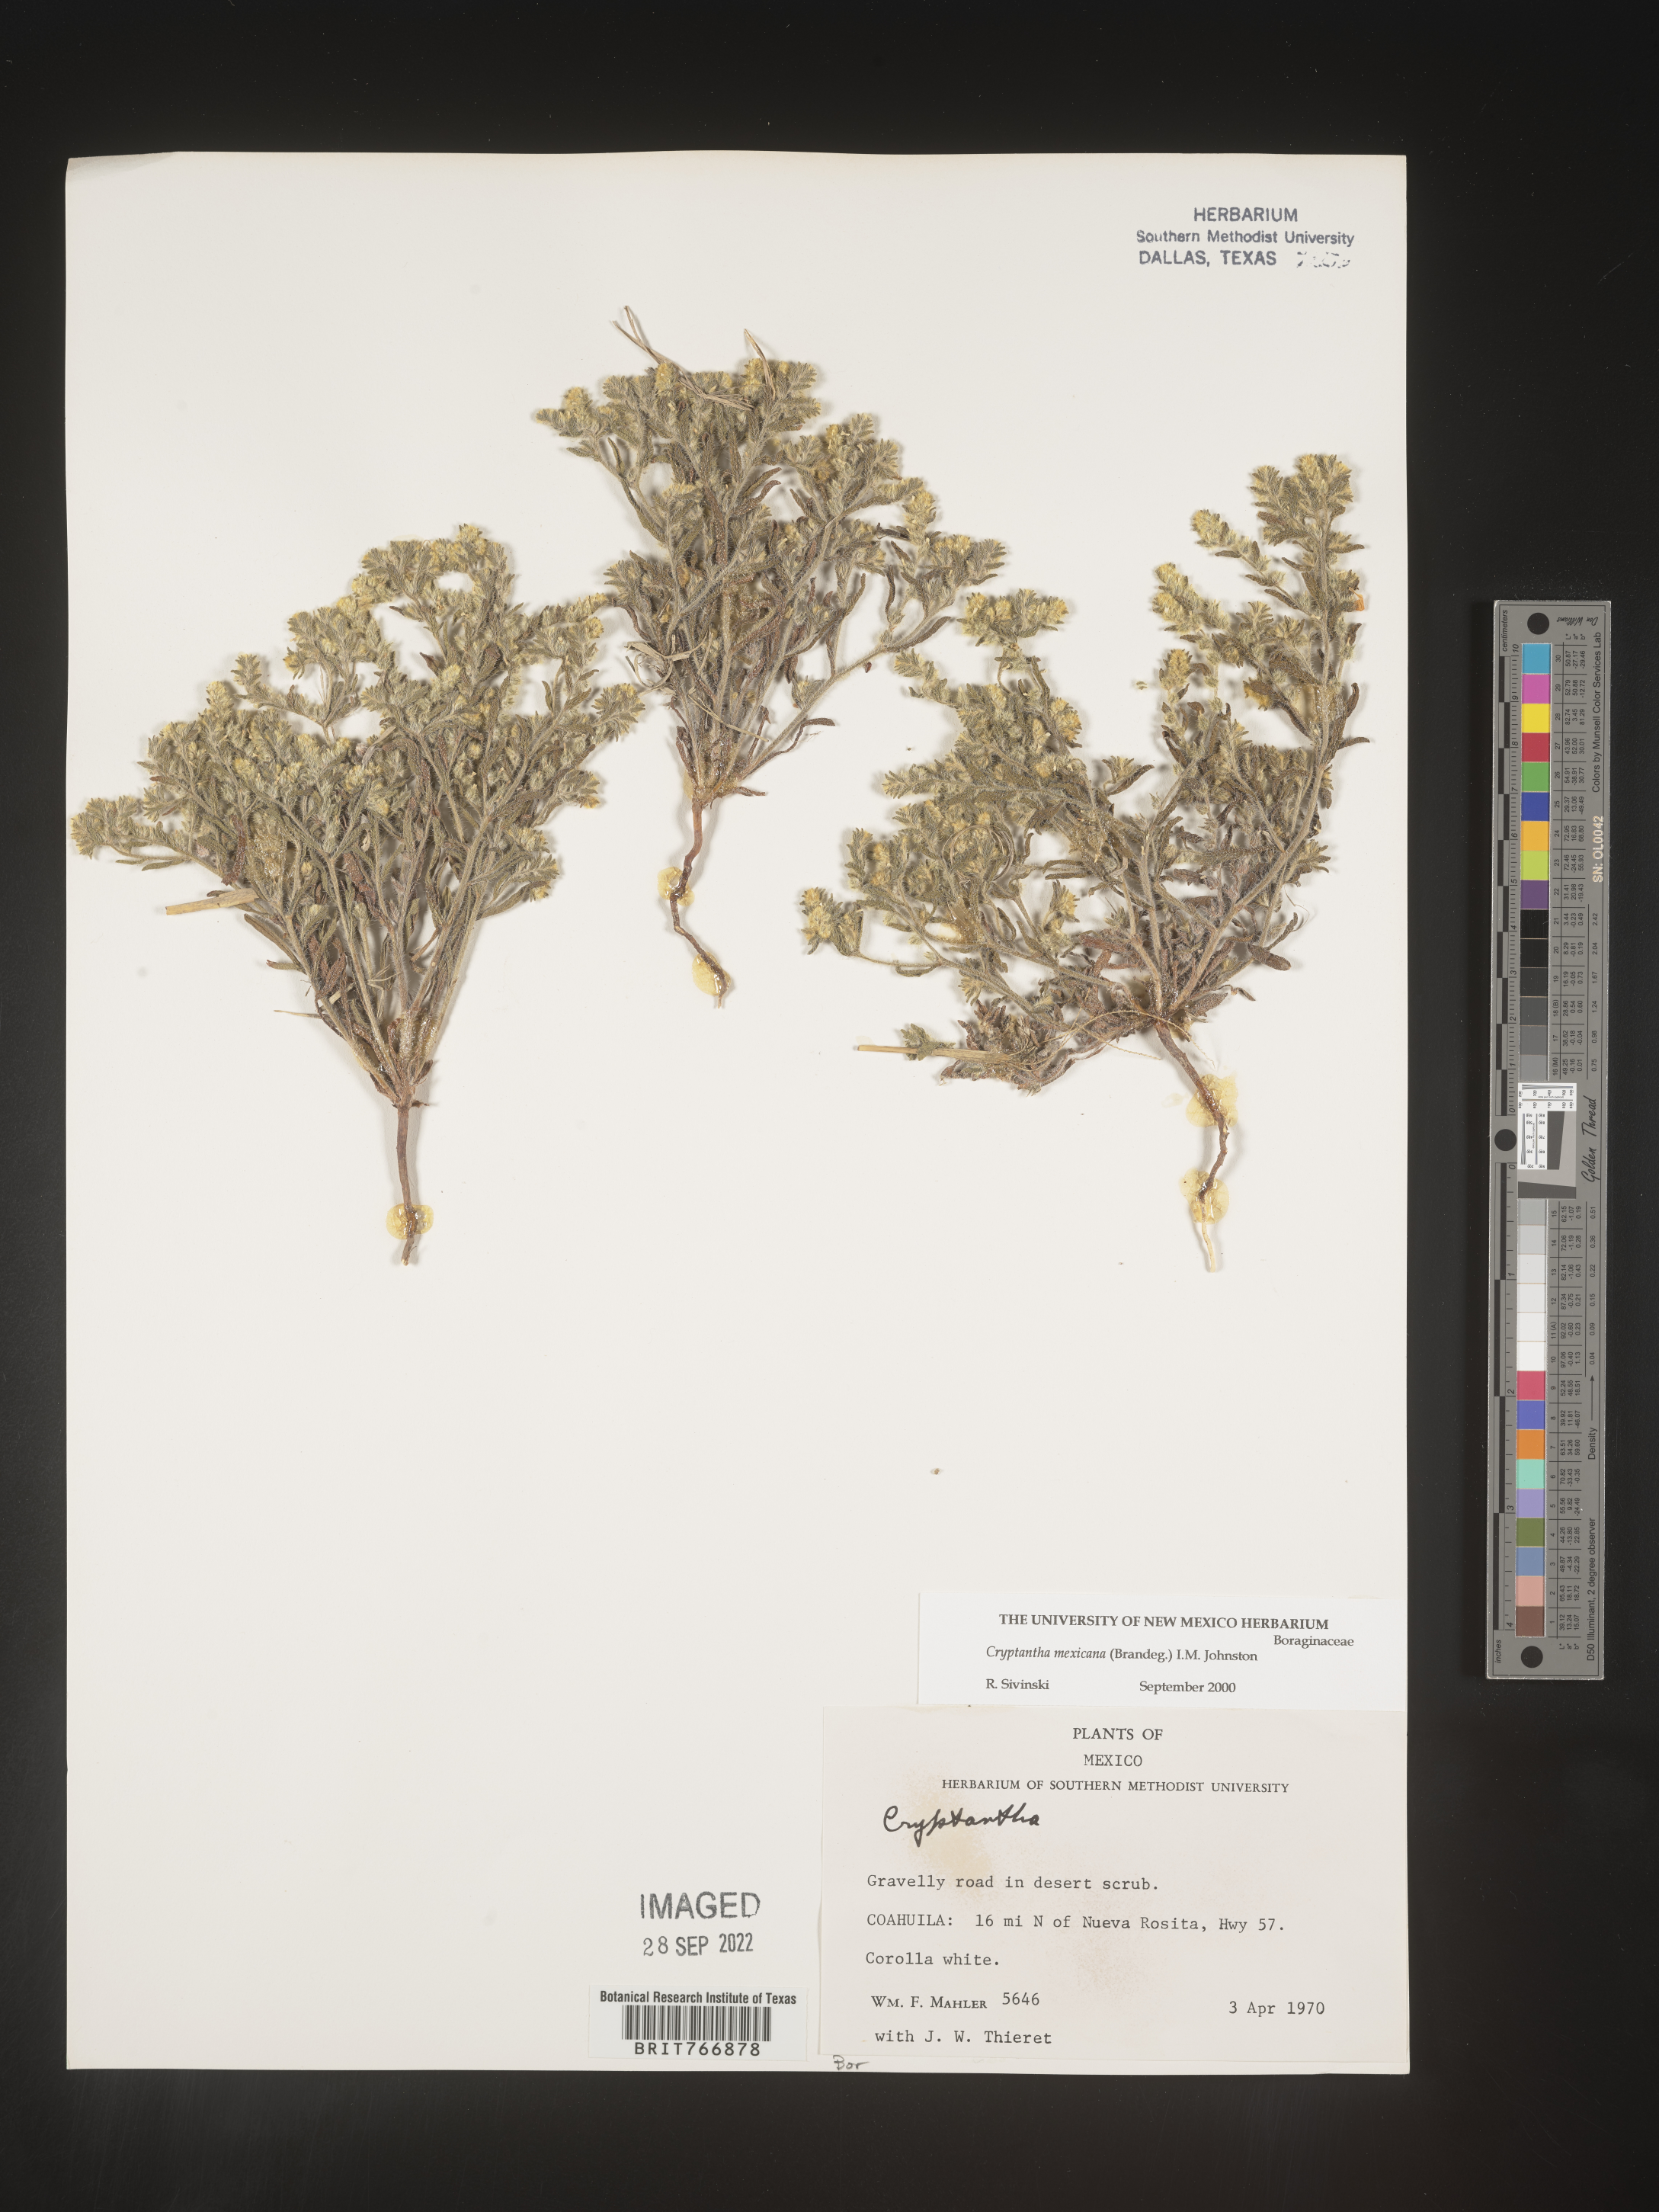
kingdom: Plantae
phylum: Tracheophyta
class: Magnoliopsida
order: Boraginales
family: Boraginaceae
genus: Cryptantha
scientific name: Cryptantha
